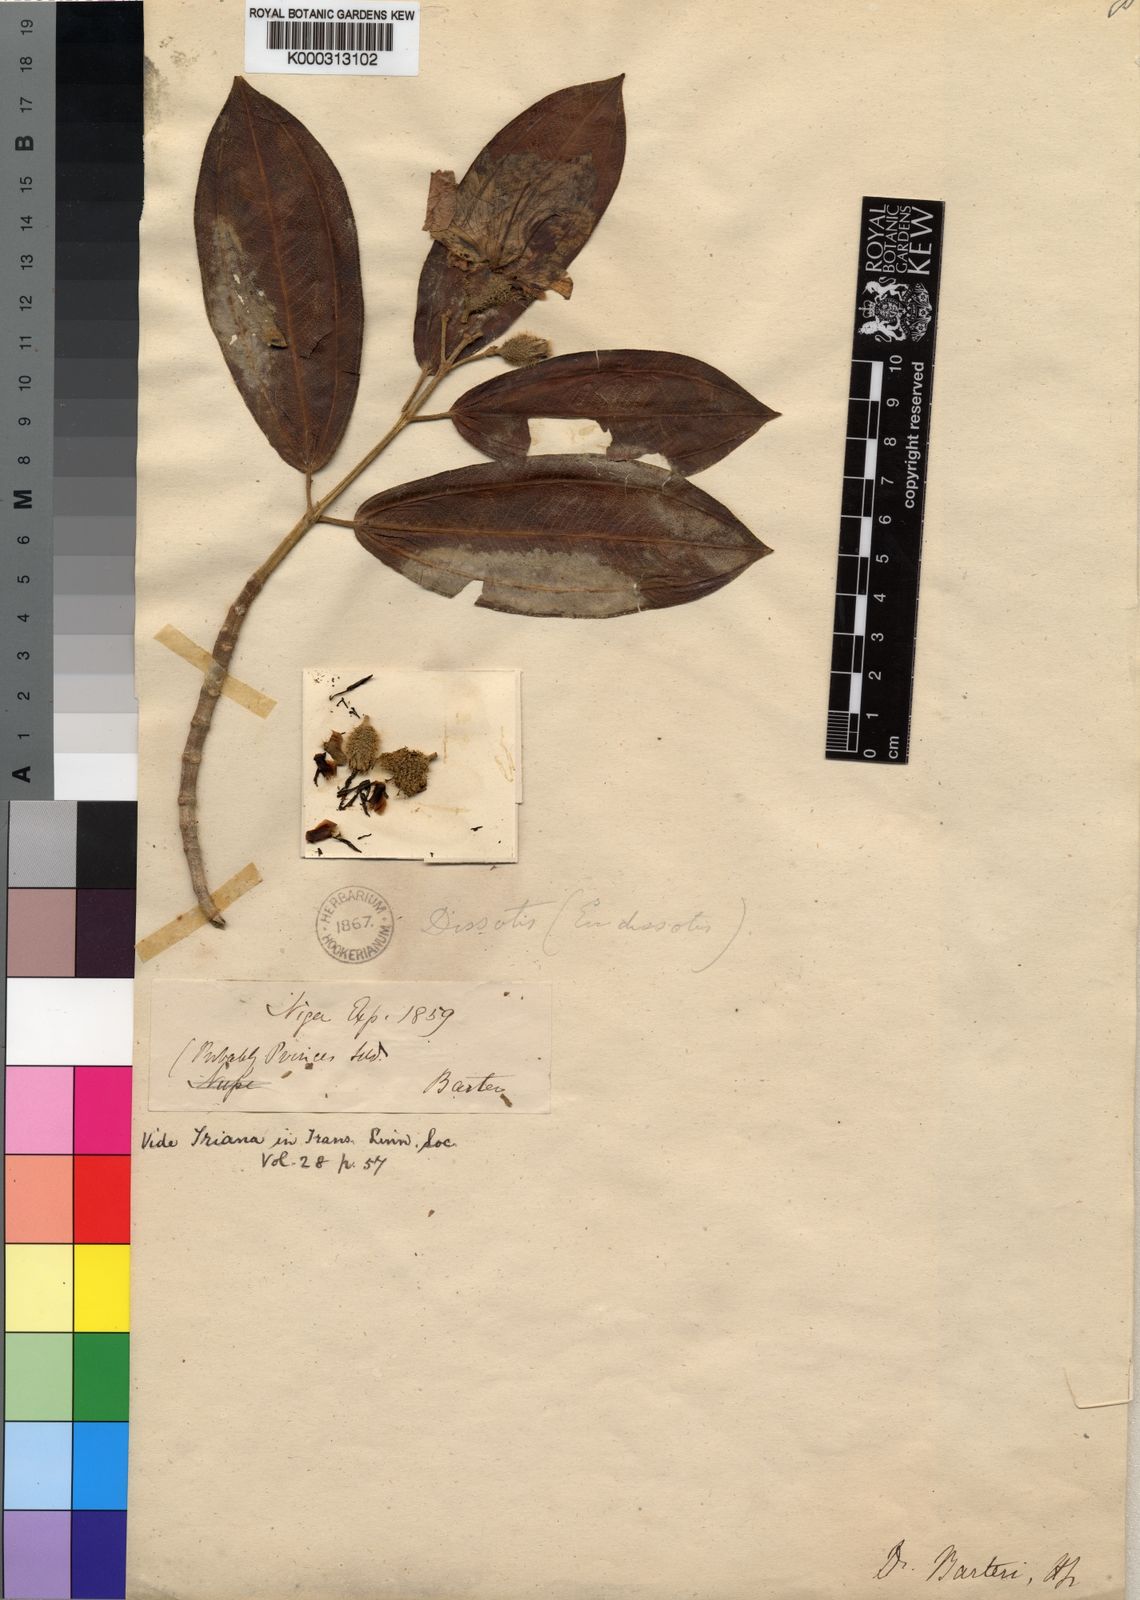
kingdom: Plantae
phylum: Tracheophyta
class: Magnoliopsida
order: Myrtales
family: Melastomataceae
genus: Nothodissotis
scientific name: Nothodissotis barteri
